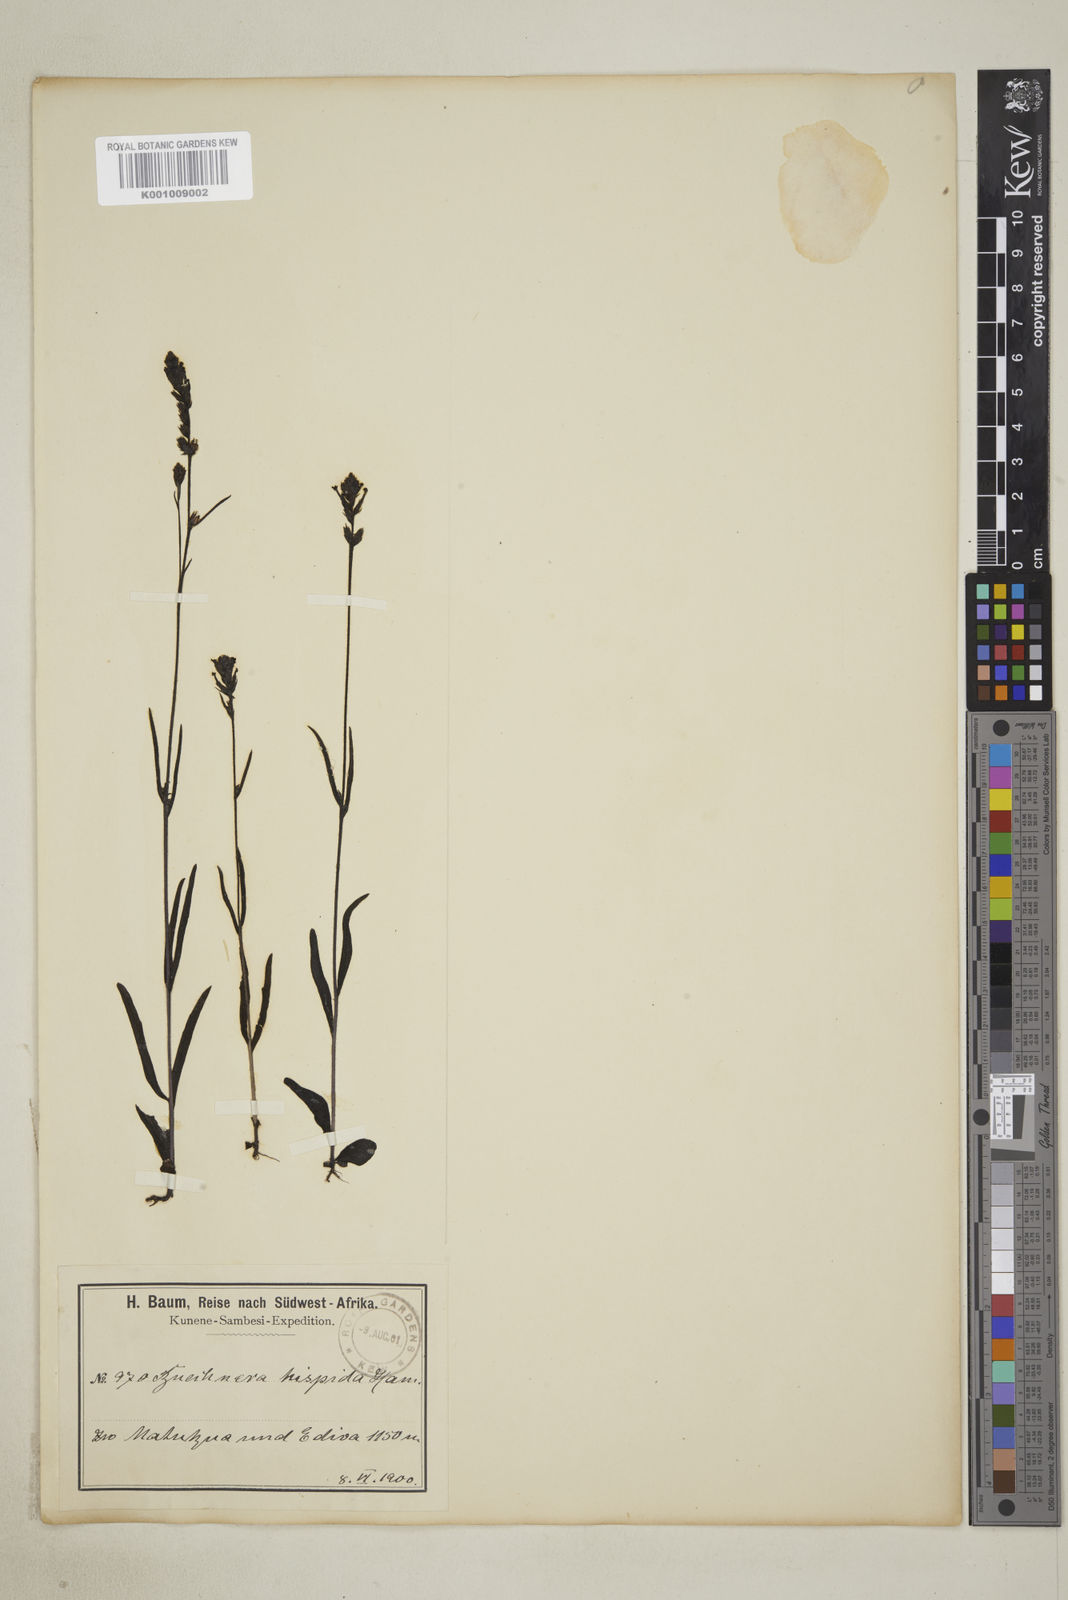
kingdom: Plantae
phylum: Tracheophyta
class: Magnoliopsida
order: Lamiales
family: Orobanchaceae
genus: Buchnera
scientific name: Buchnera hispida
